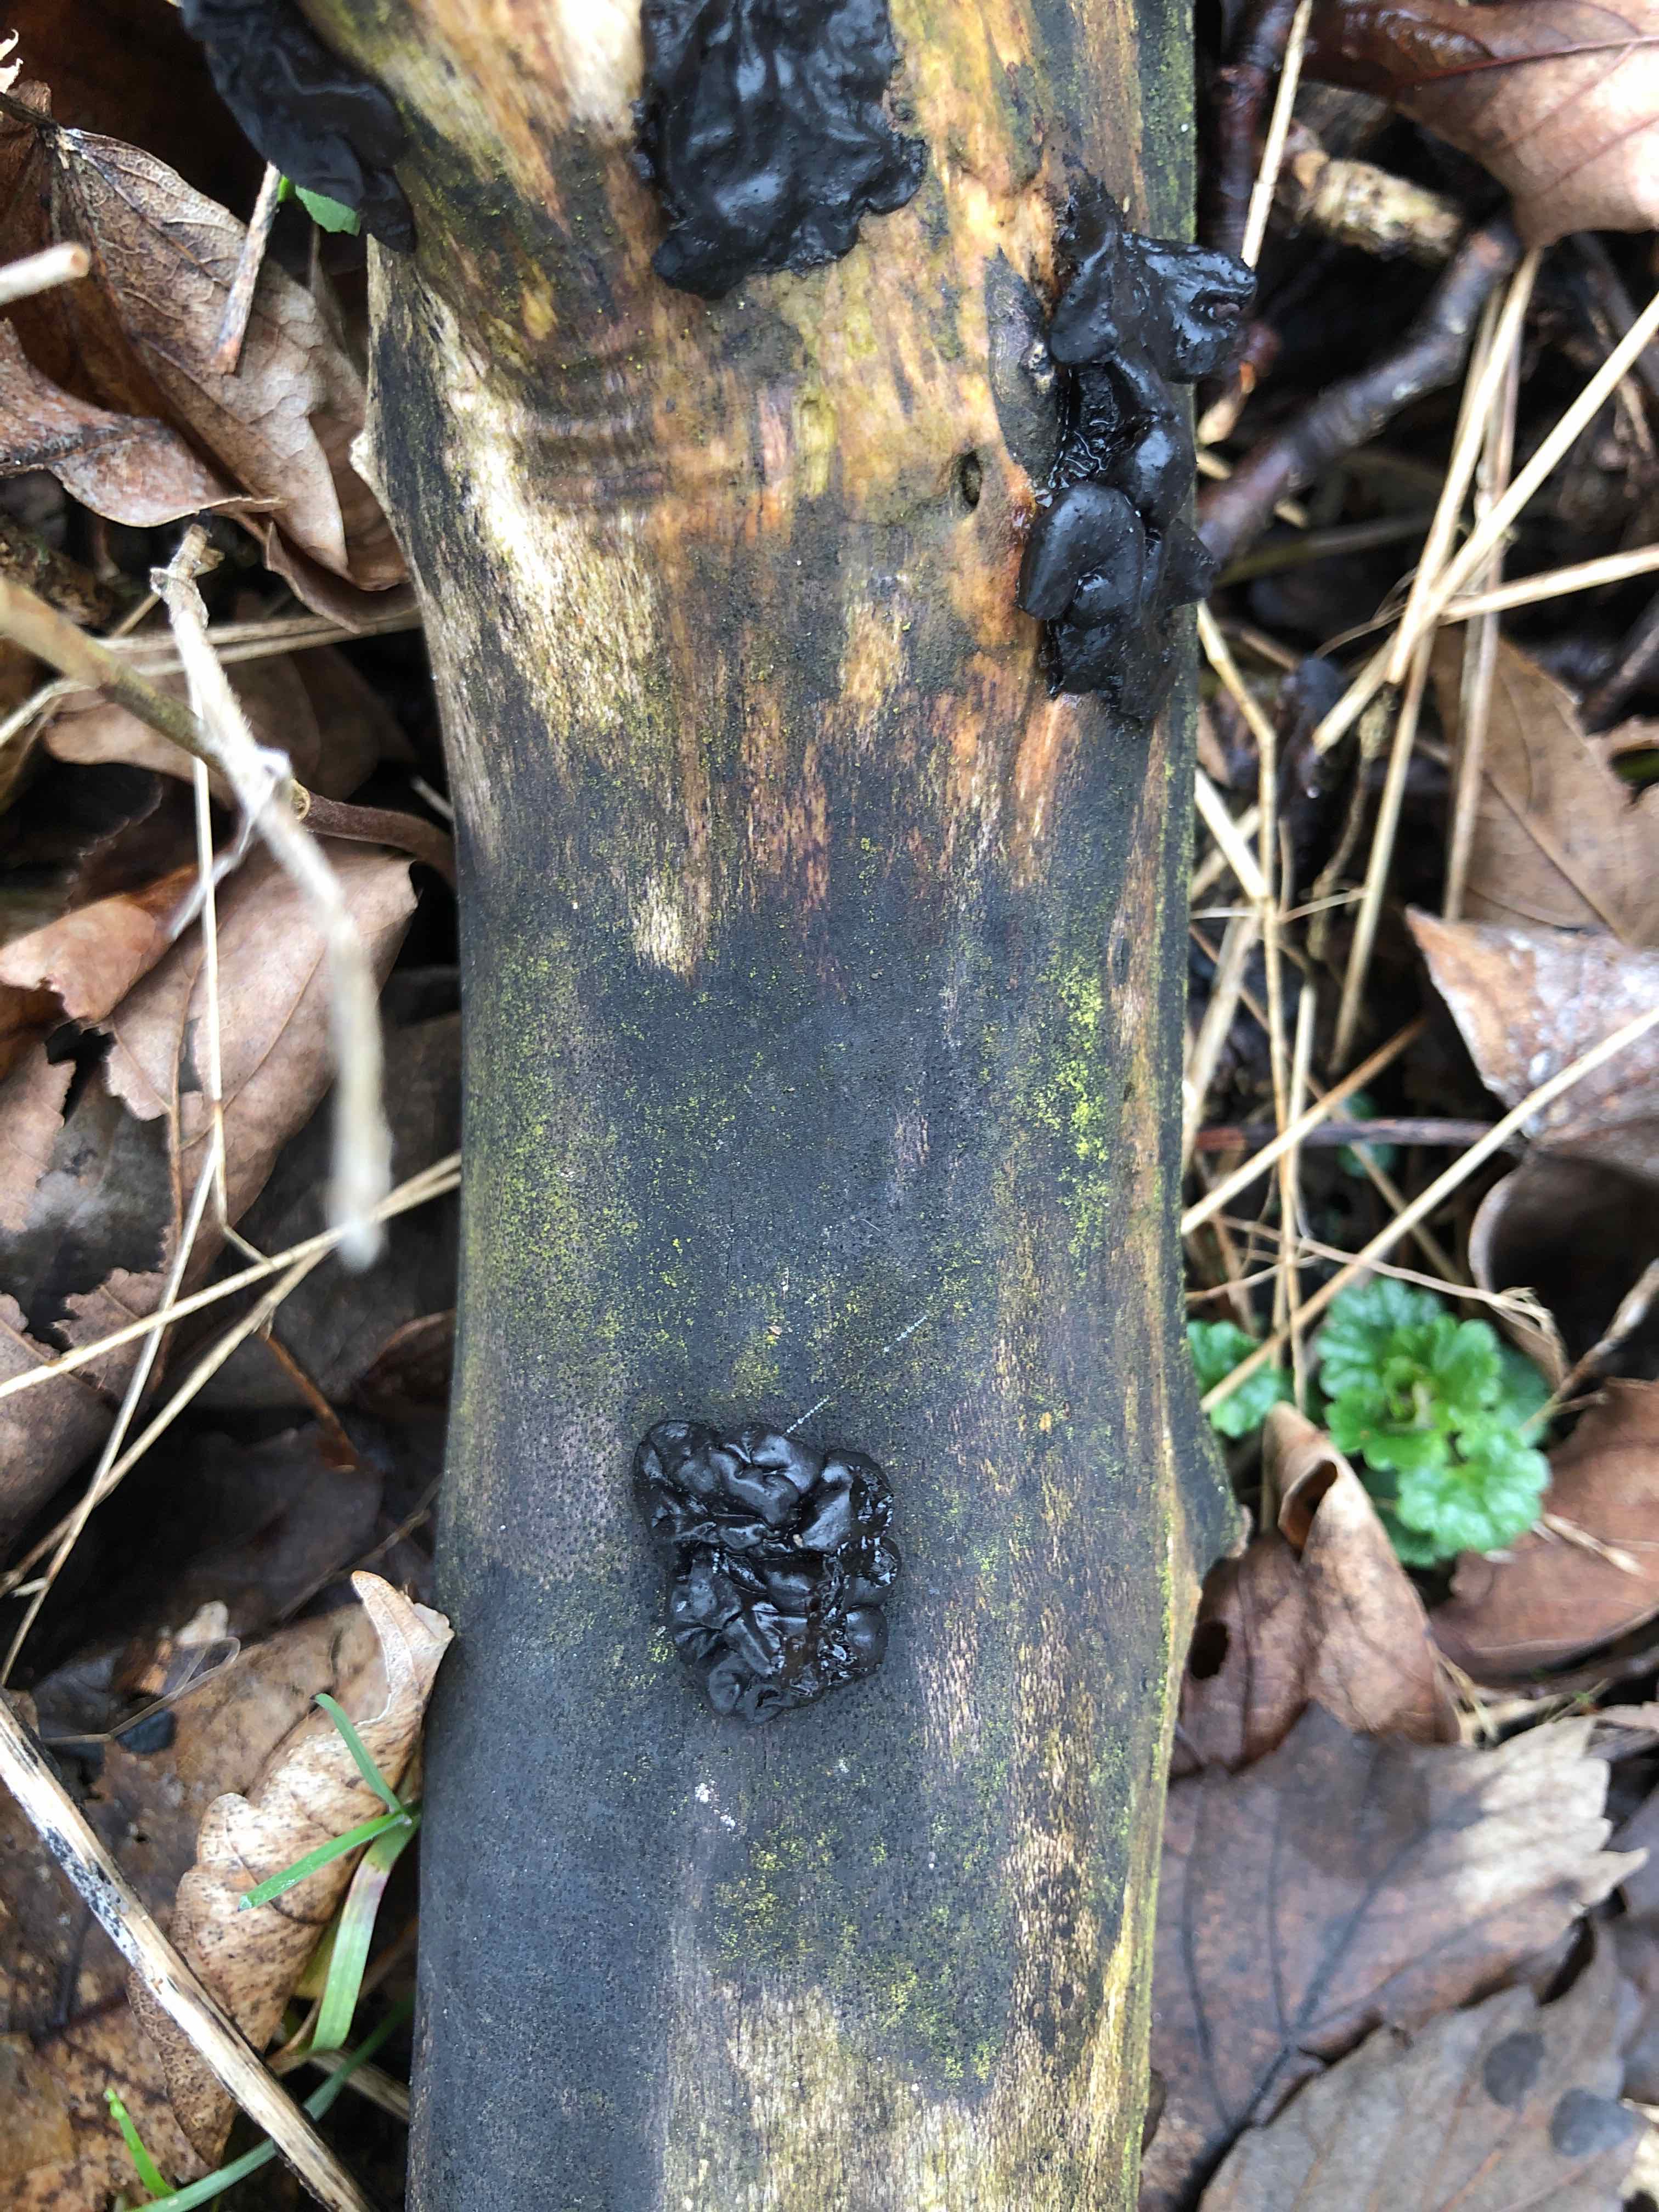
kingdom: Fungi
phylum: Basidiomycota
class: Agaricomycetes
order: Auriculariales
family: Auriculariaceae
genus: Exidia
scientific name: Exidia nigricans
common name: almindelig bævretop
